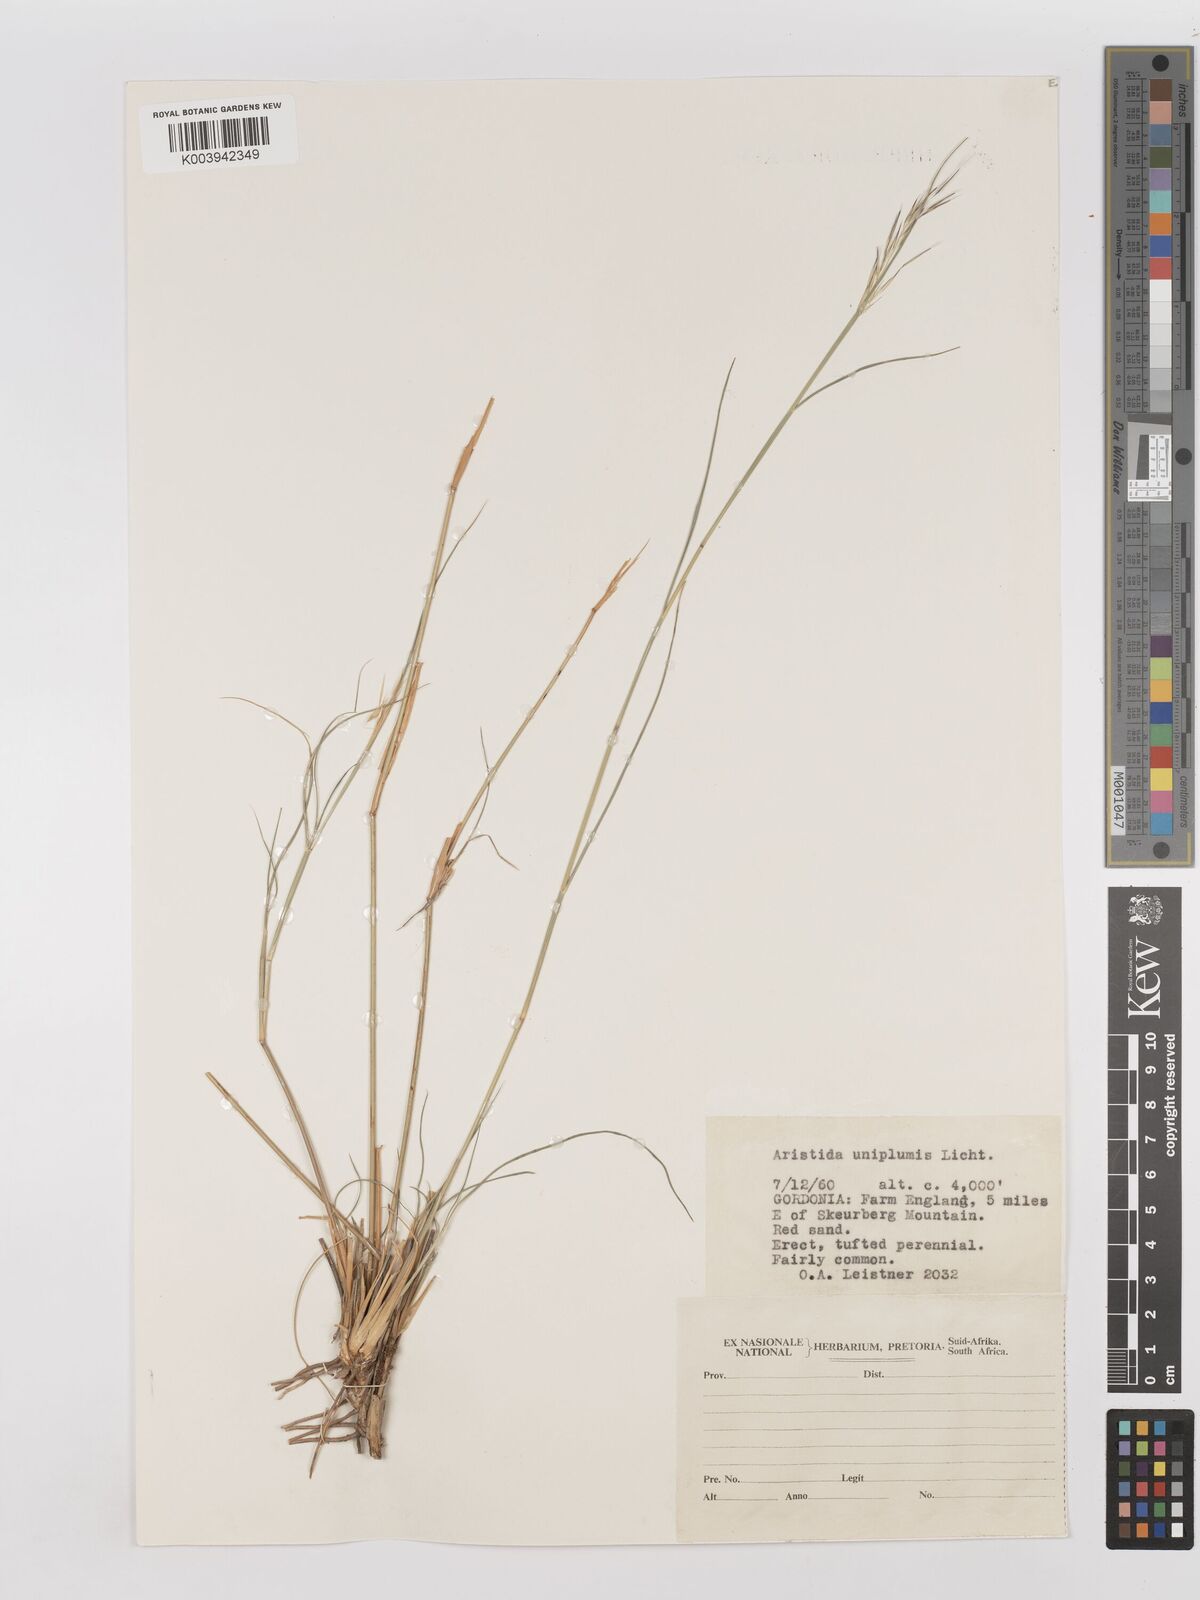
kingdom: Plantae
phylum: Tracheophyta
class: Liliopsida
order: Poales
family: Poaceae
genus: Stipagrostis
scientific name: Stipagrostis uniplumis
